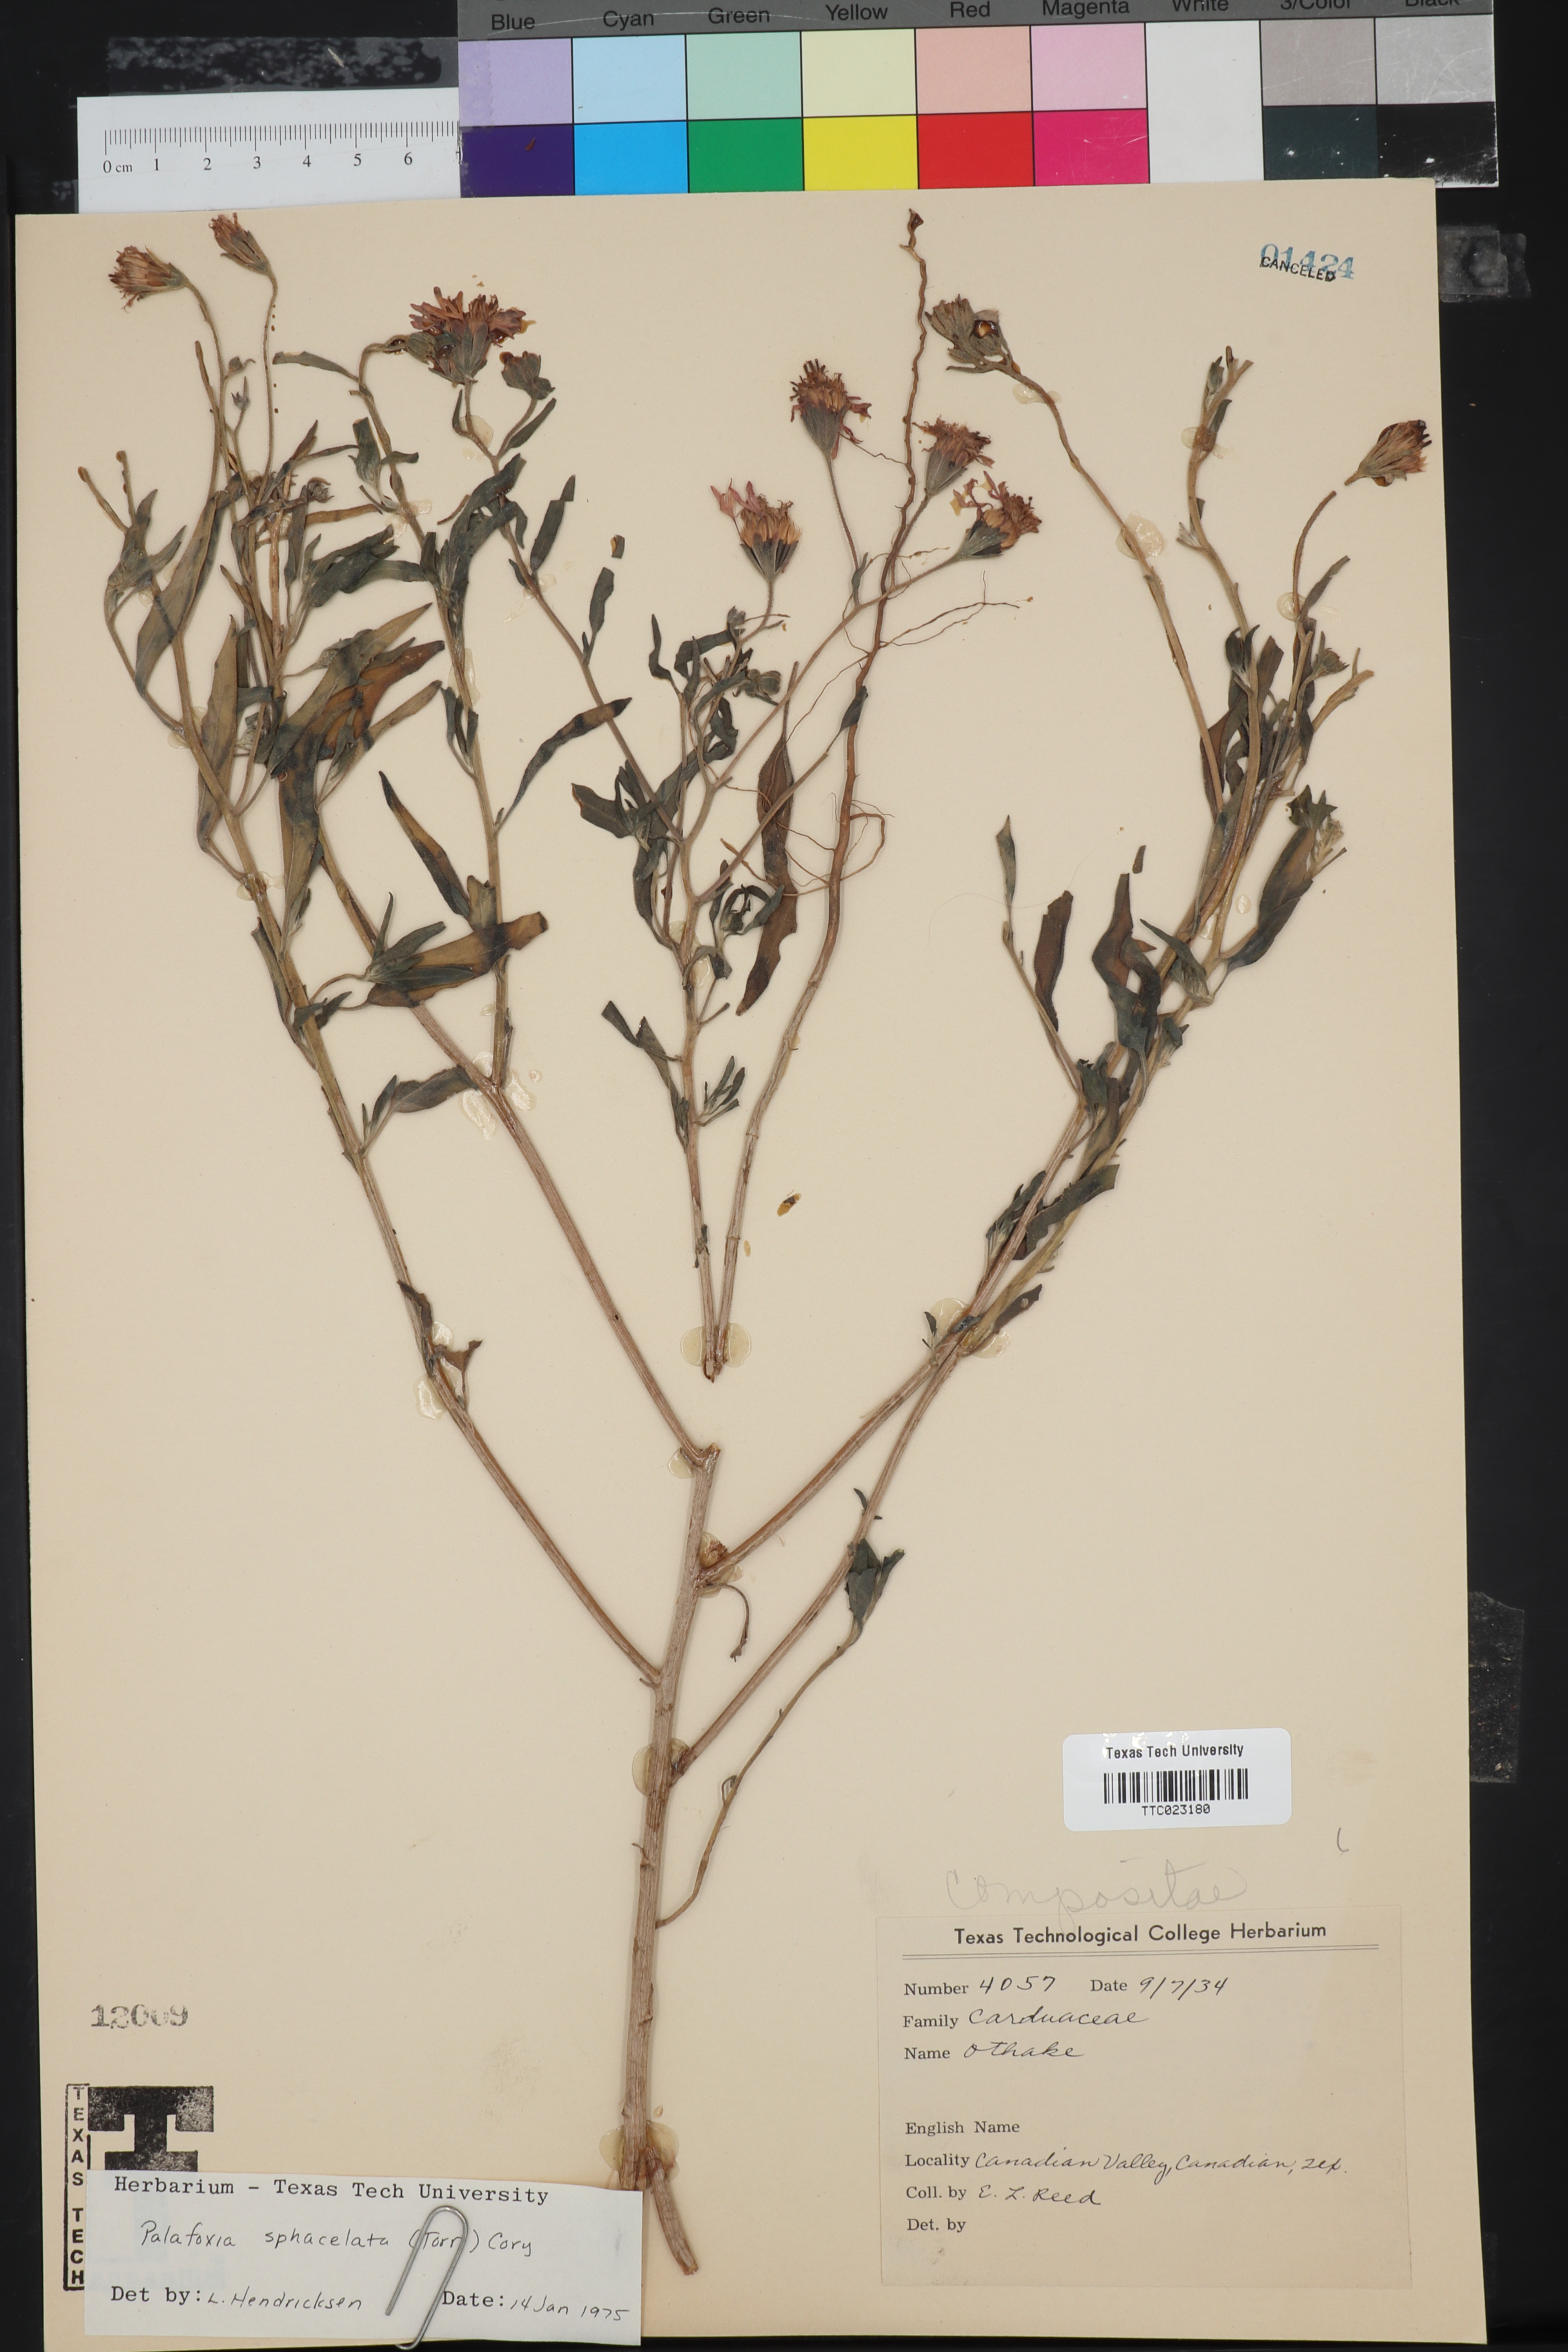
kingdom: Plantae
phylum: Tracheophyta
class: Magnoliopsida
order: Asterales
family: Asteraceae
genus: Palafoxia
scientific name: Palafoxia sphacelata
